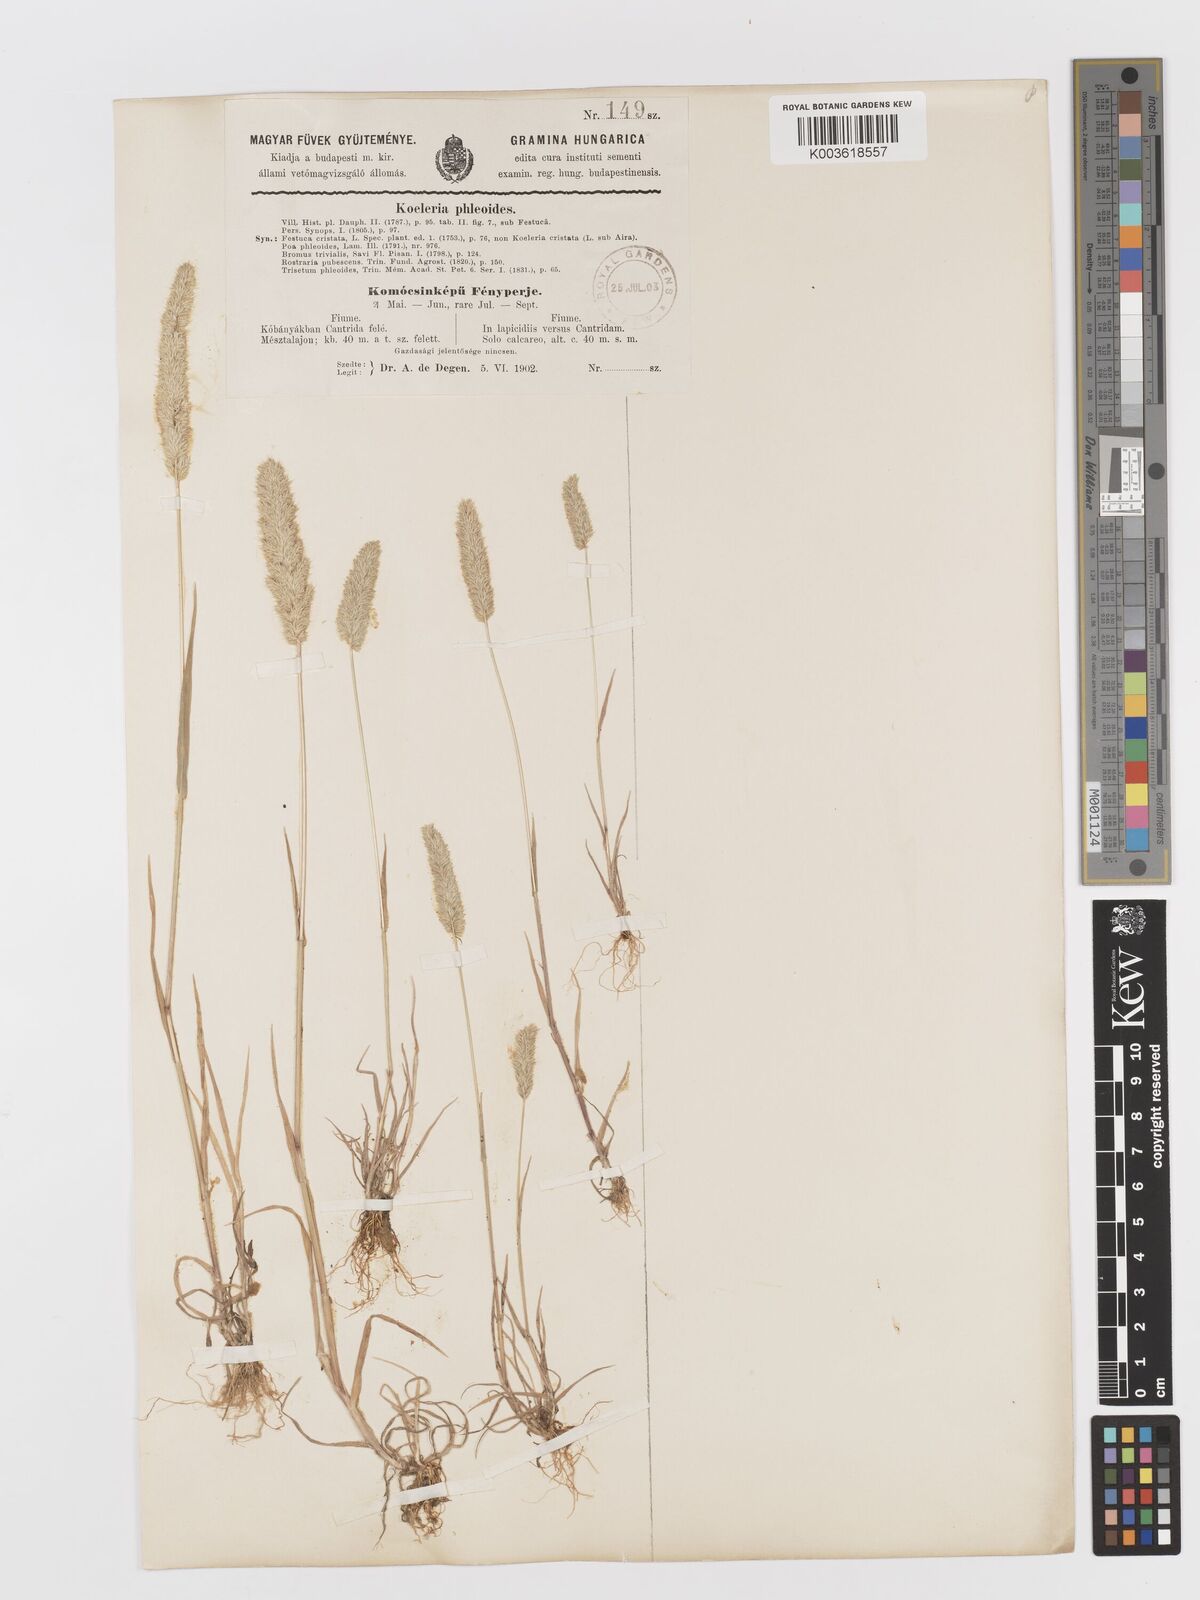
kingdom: Plantae
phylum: Tracheophyta
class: Liliopsida
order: Poales
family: Poaceae
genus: Rostraria
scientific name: Rostraria cristata
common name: Mediterranean hair-grass
